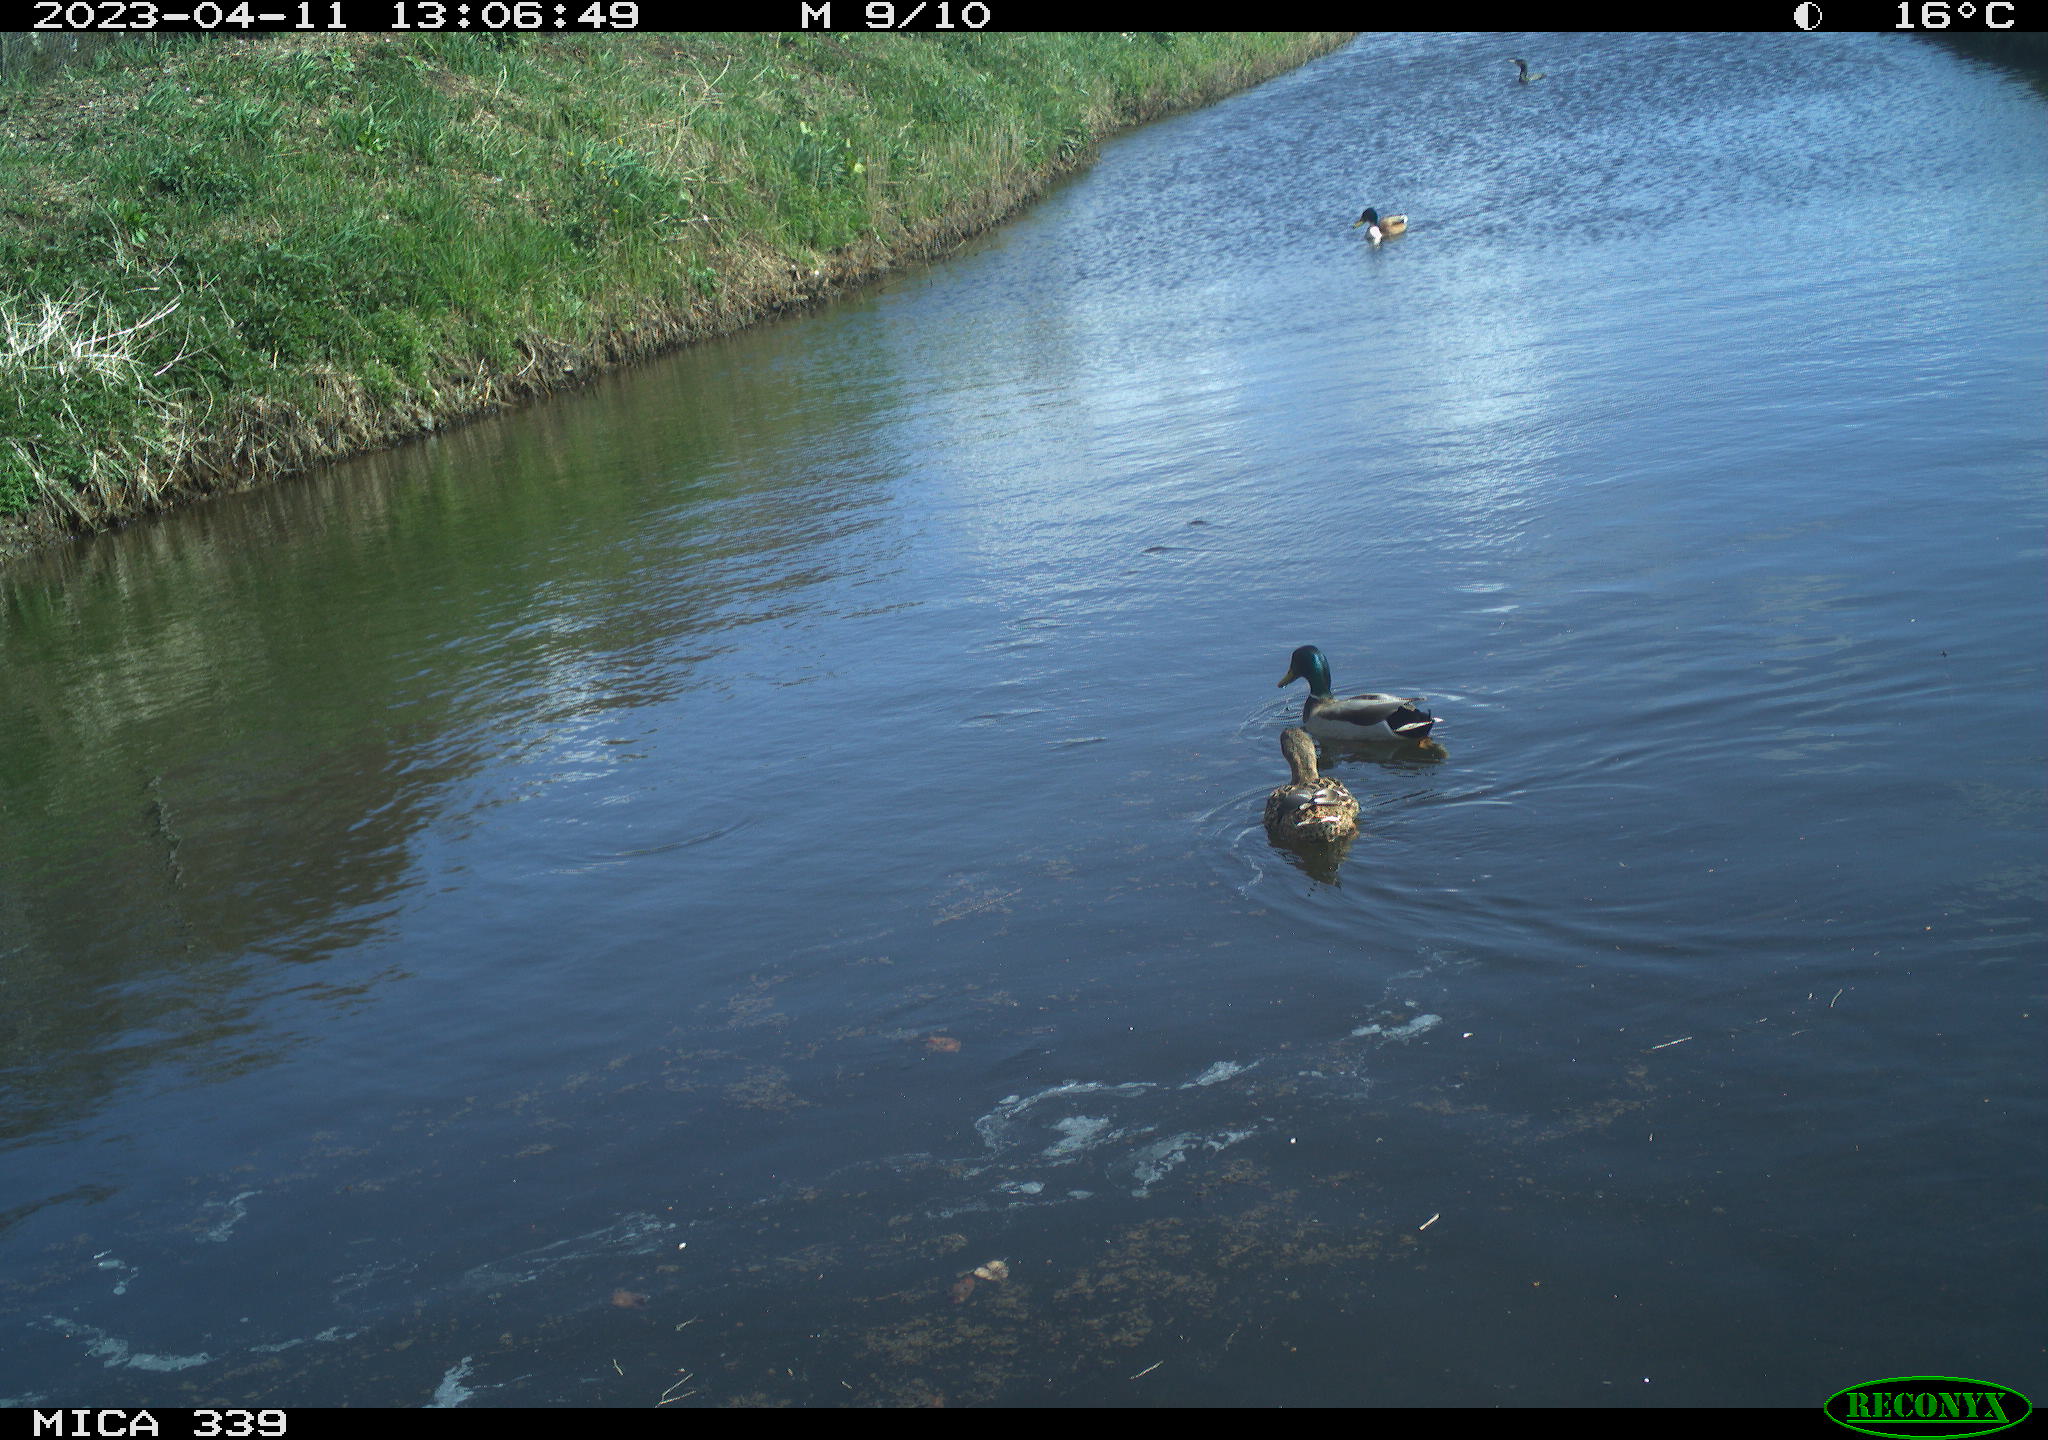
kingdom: Animalia
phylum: Chordata
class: Aves
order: Anseriformes
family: Anatidae
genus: Anas
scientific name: Anas platyrhynchos
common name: Mallard
